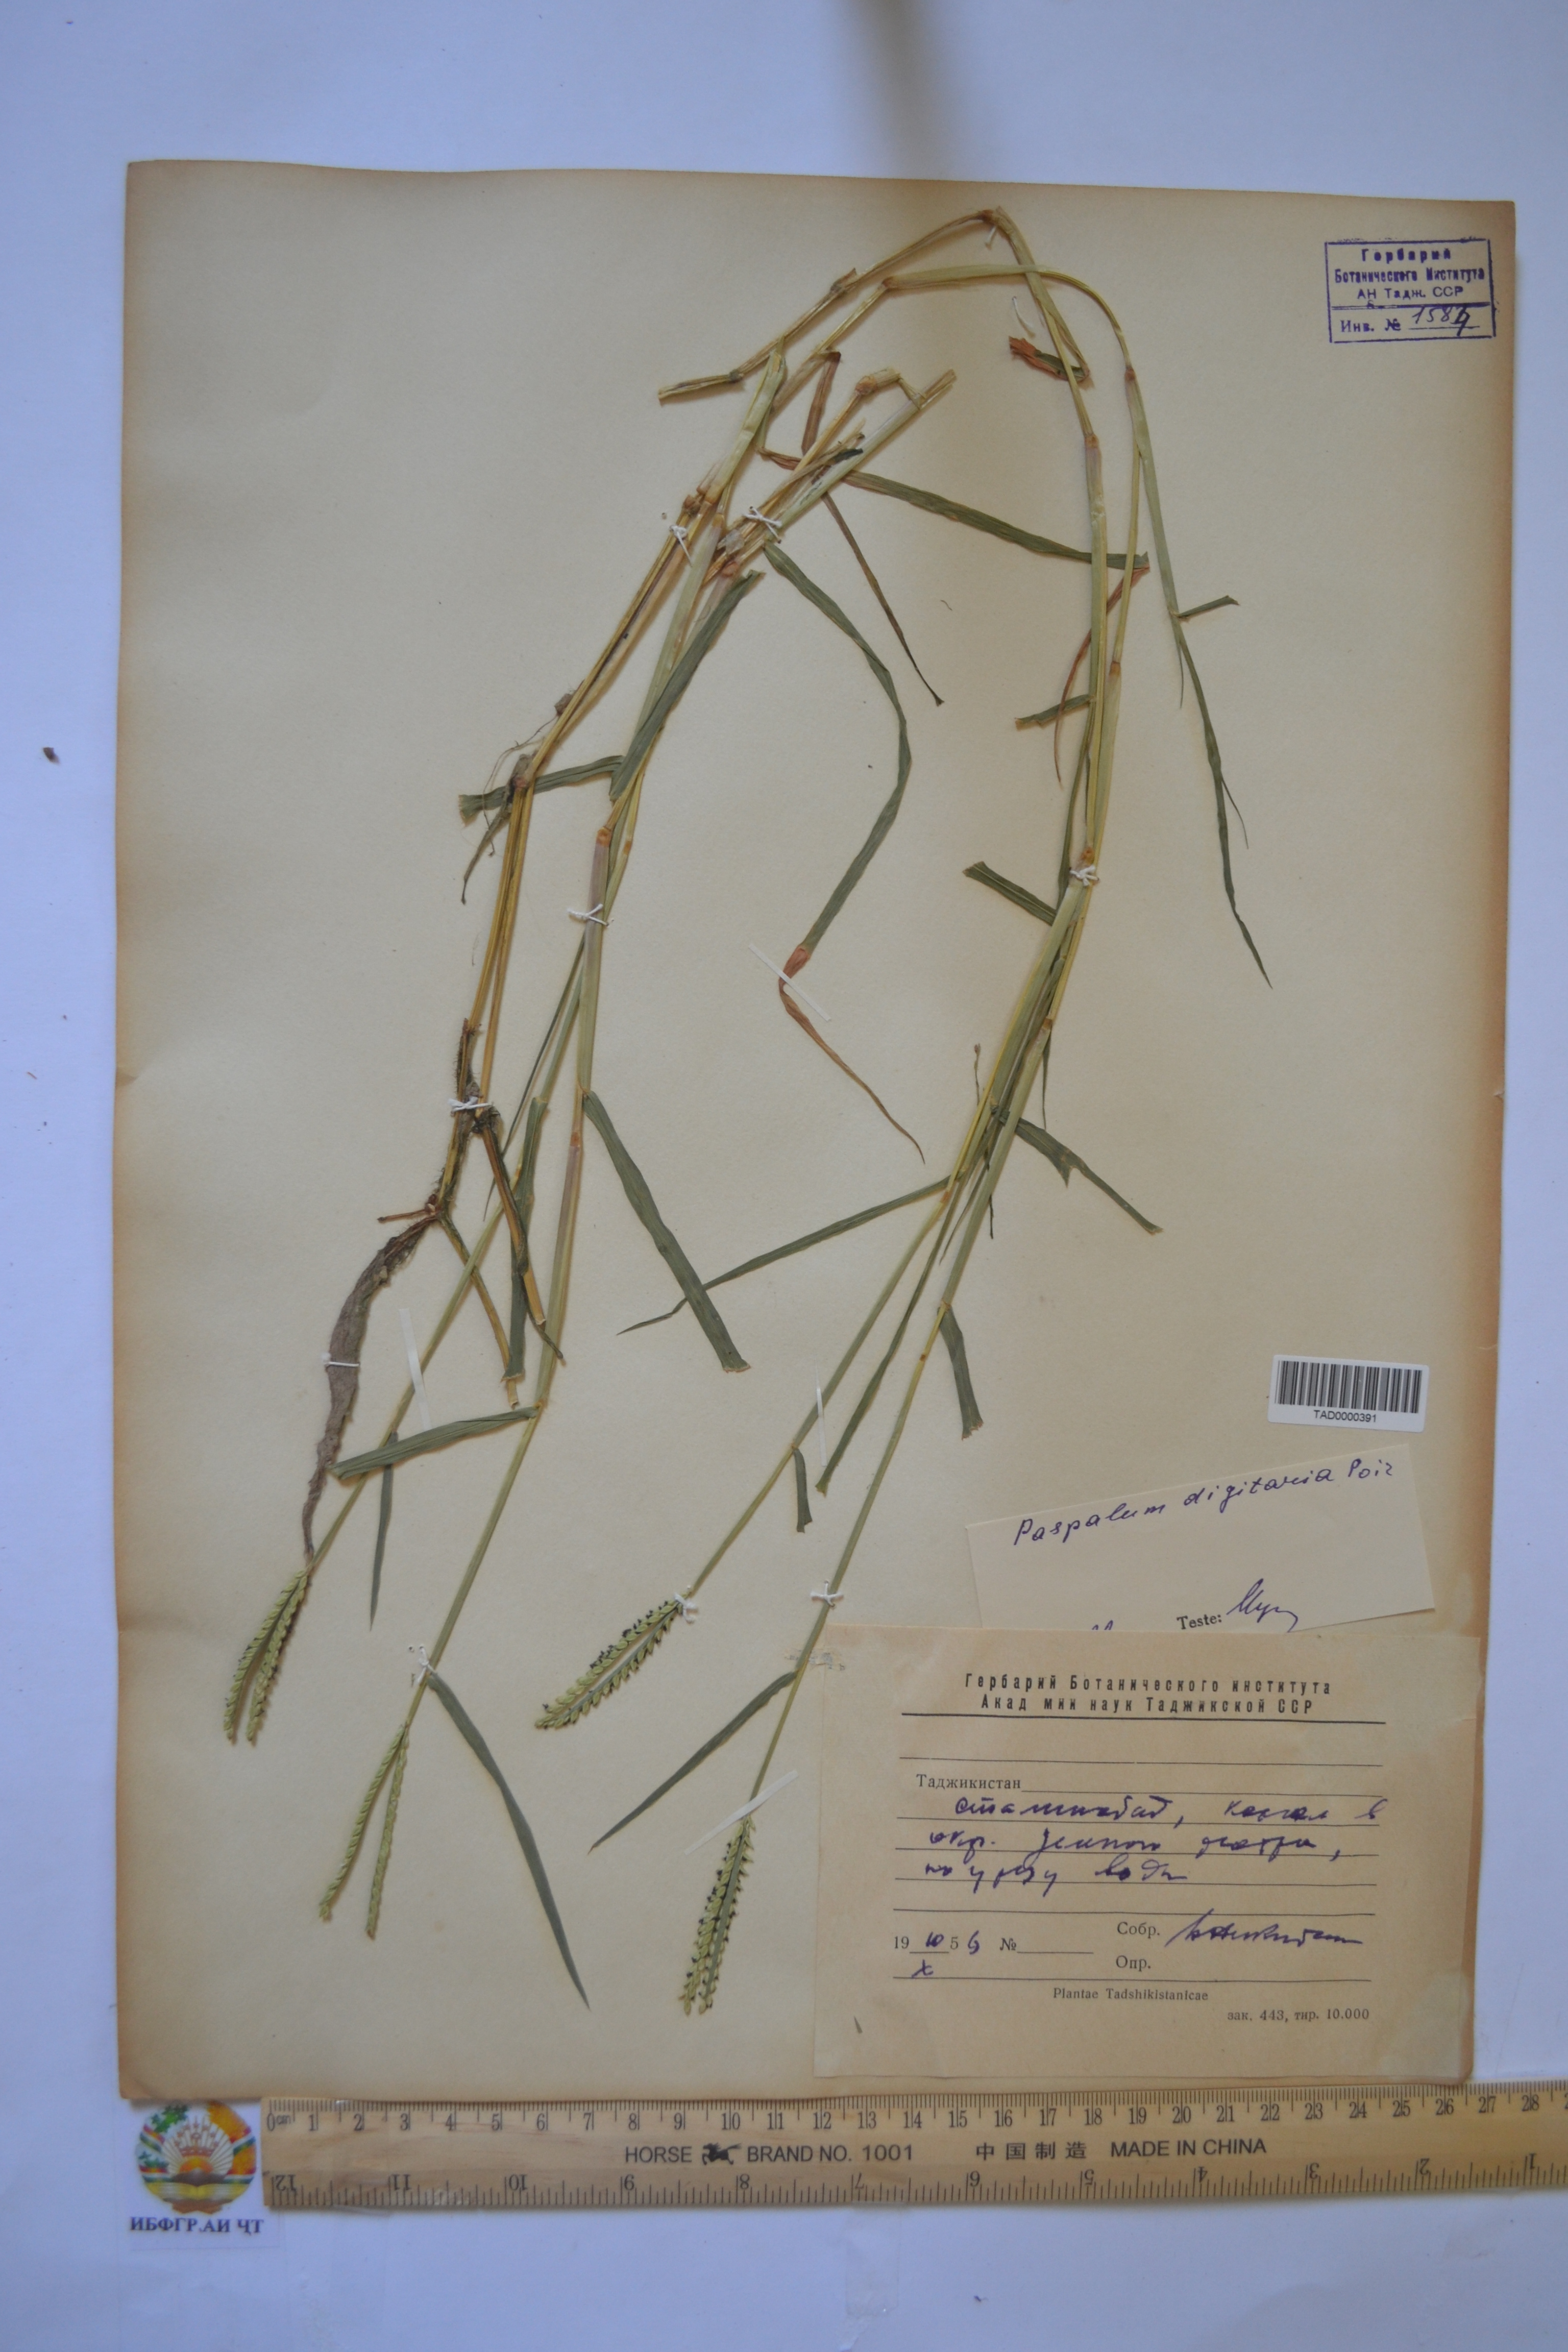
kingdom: Plantae
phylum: Tracheophyta
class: Liliopsida
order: Poales
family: Poaceae
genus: Paspalum
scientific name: Paspalum distichum
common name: Knotgrass
